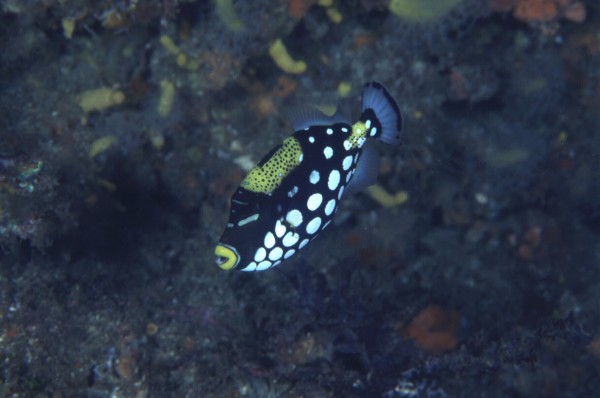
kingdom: Animalia
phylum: Chordata
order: Tetraodontiformes
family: Balistidae
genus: Balistoides
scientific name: Balistoides conspicillum
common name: Clown triggerfish
